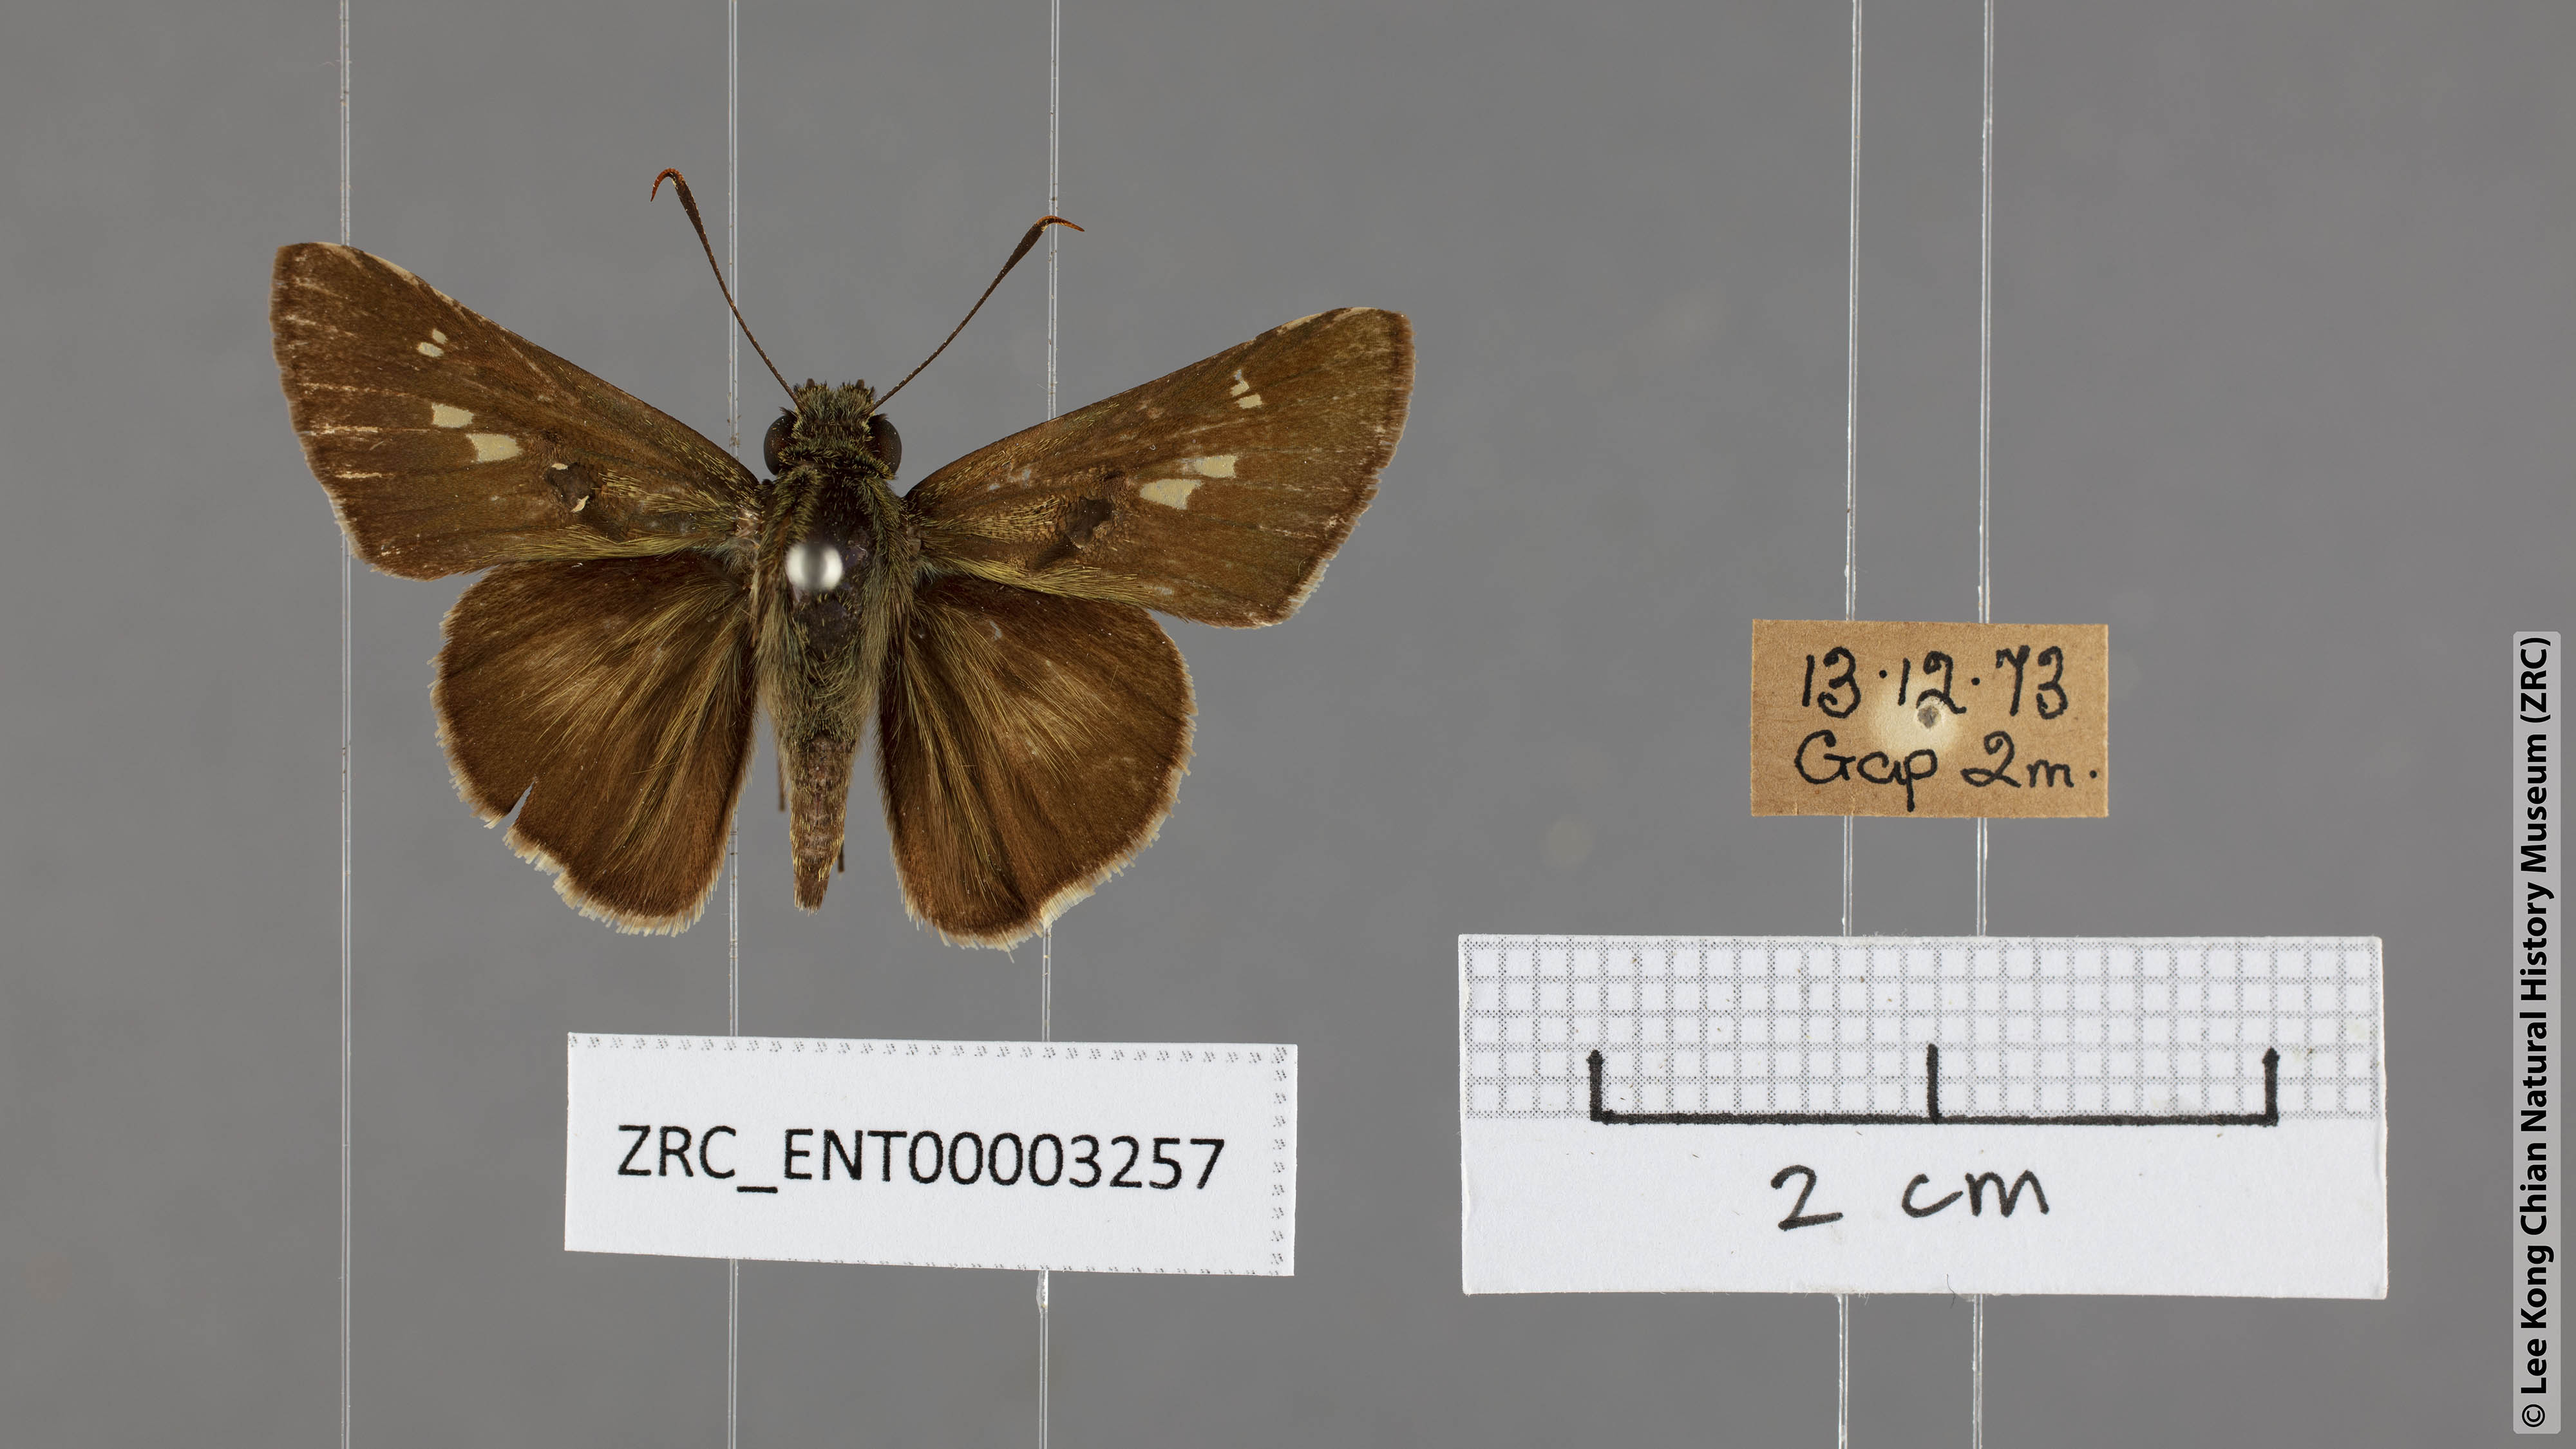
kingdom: Animalia
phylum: Arthropoda
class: Insecta
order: Lepidoptera
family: Hesperiidae
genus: Halpe
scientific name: Halpe zema
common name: Dark banded ace
